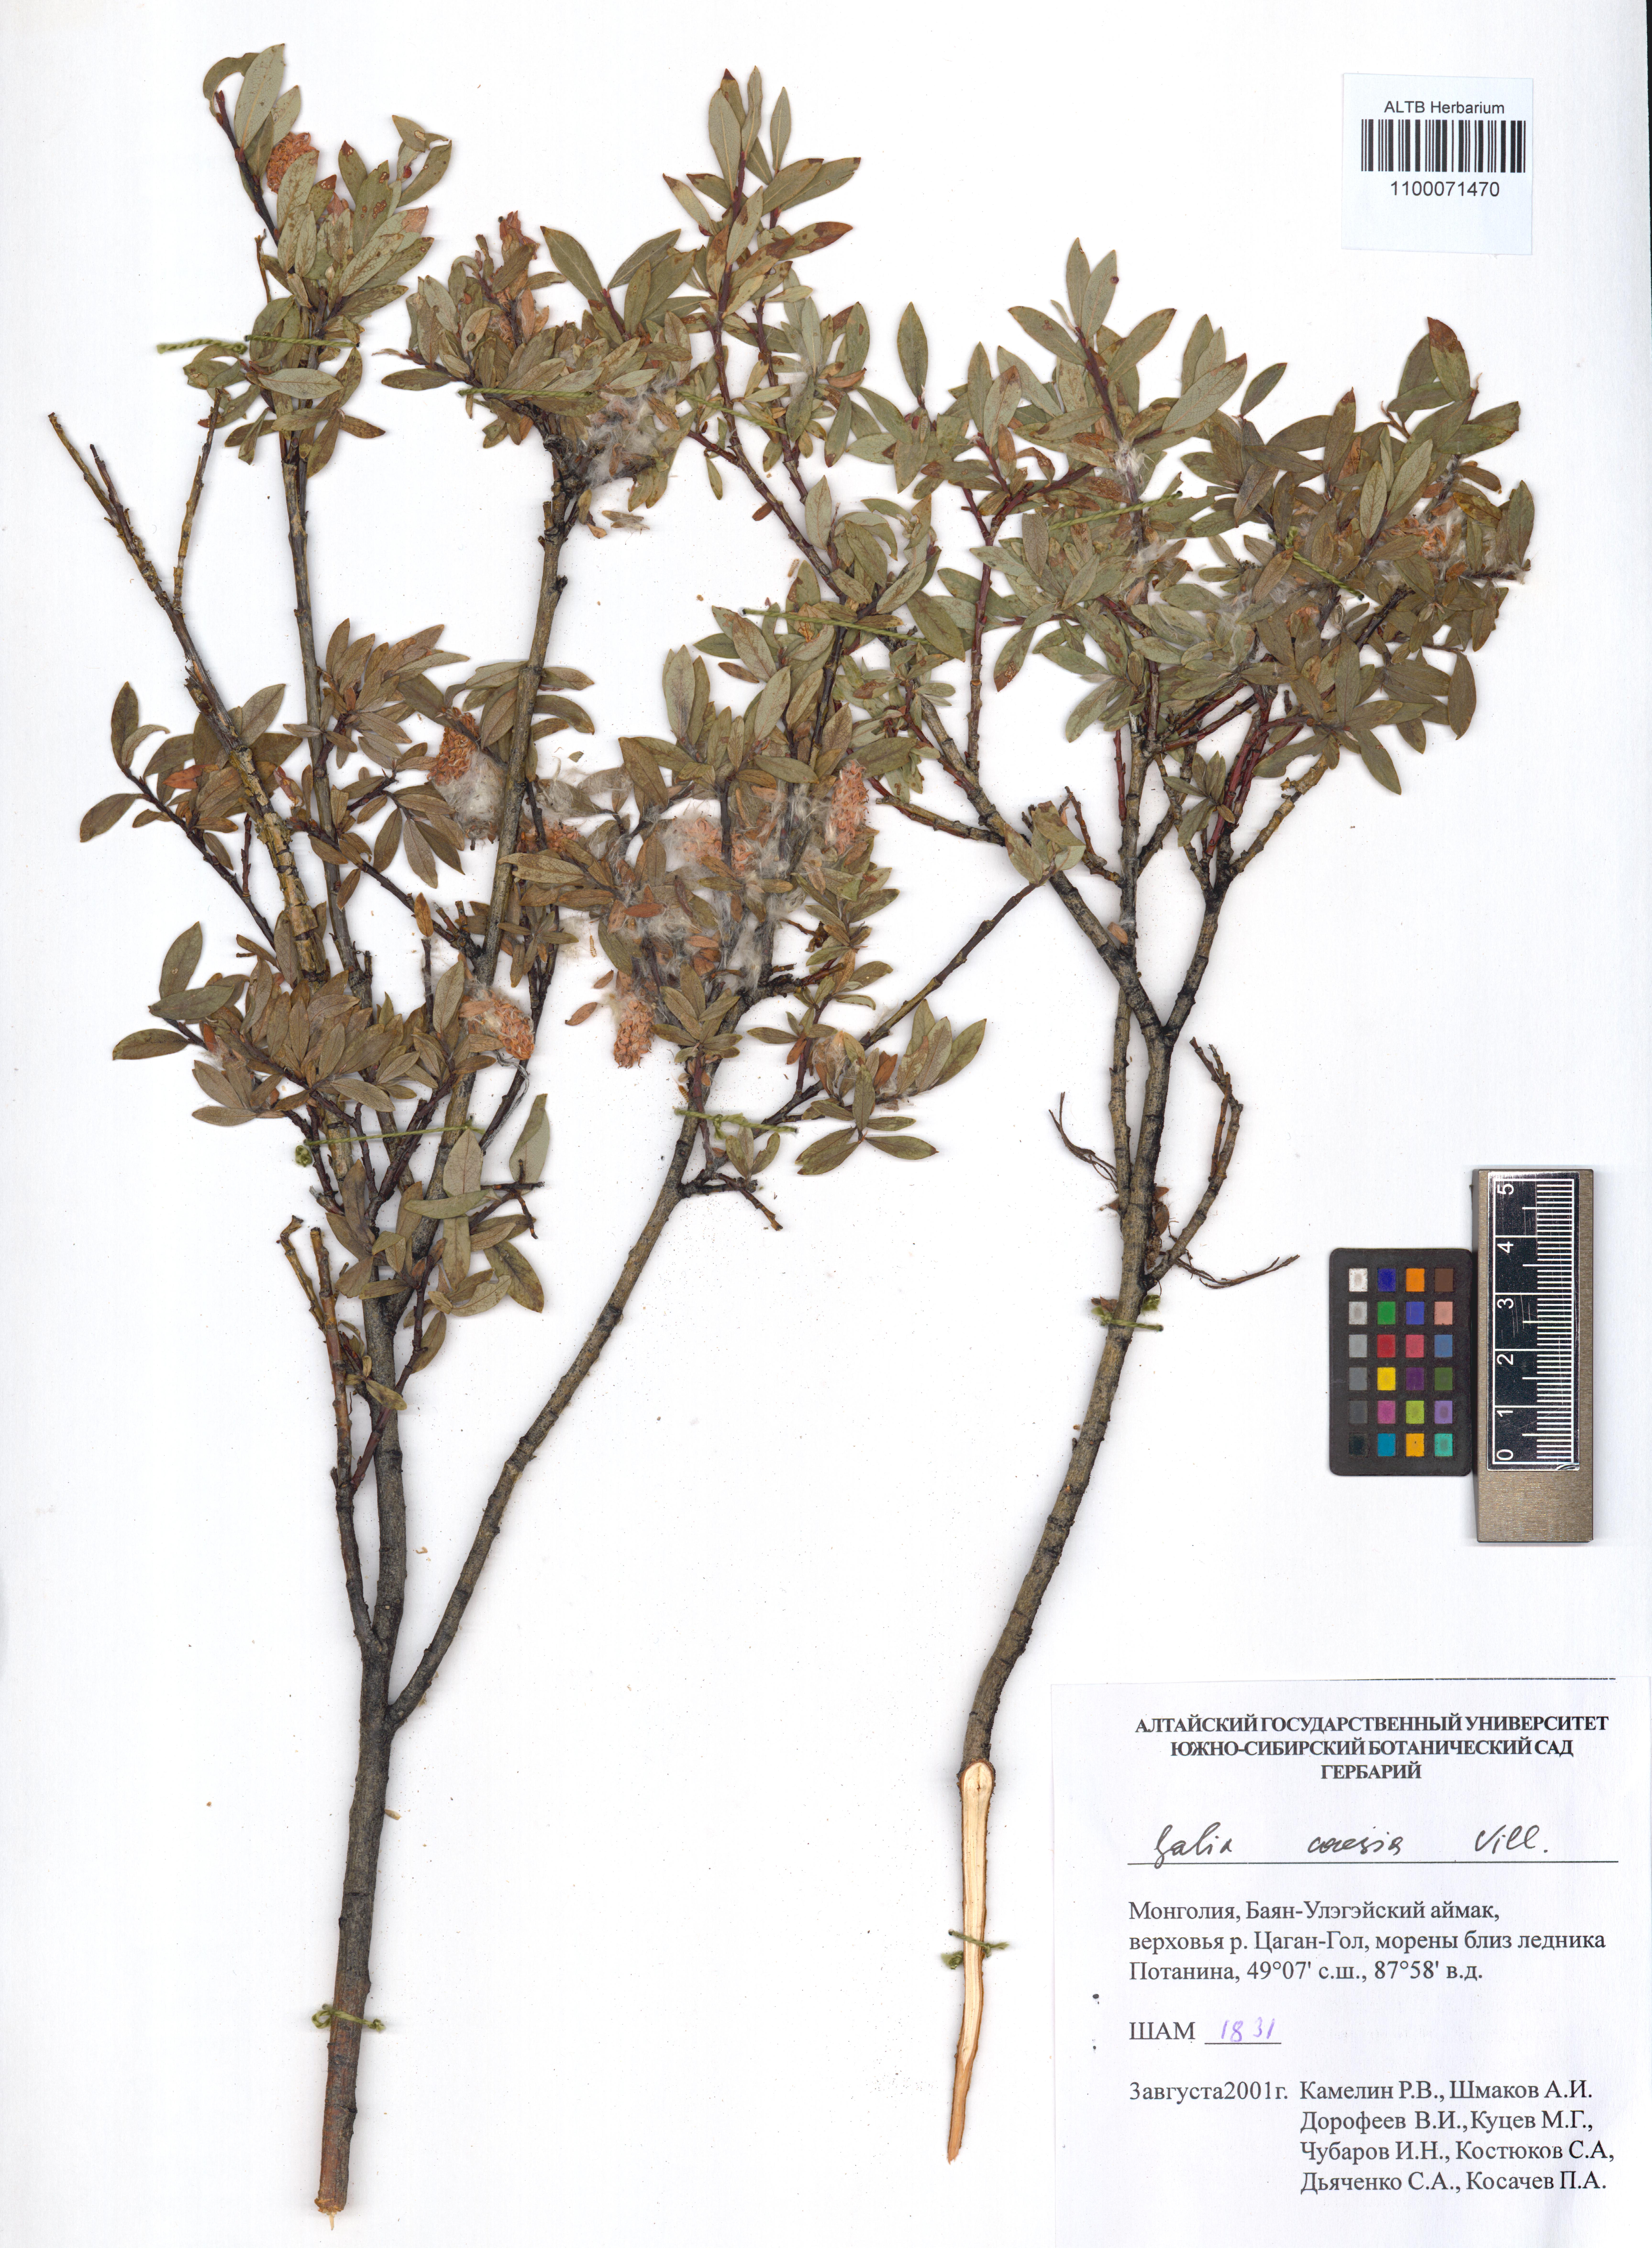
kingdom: Plantae
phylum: Tracheophyta
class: Magnoliopsida
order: Malpighiales
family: Salicaceae
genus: Salix
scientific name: Salix caesia
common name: Blue willow
